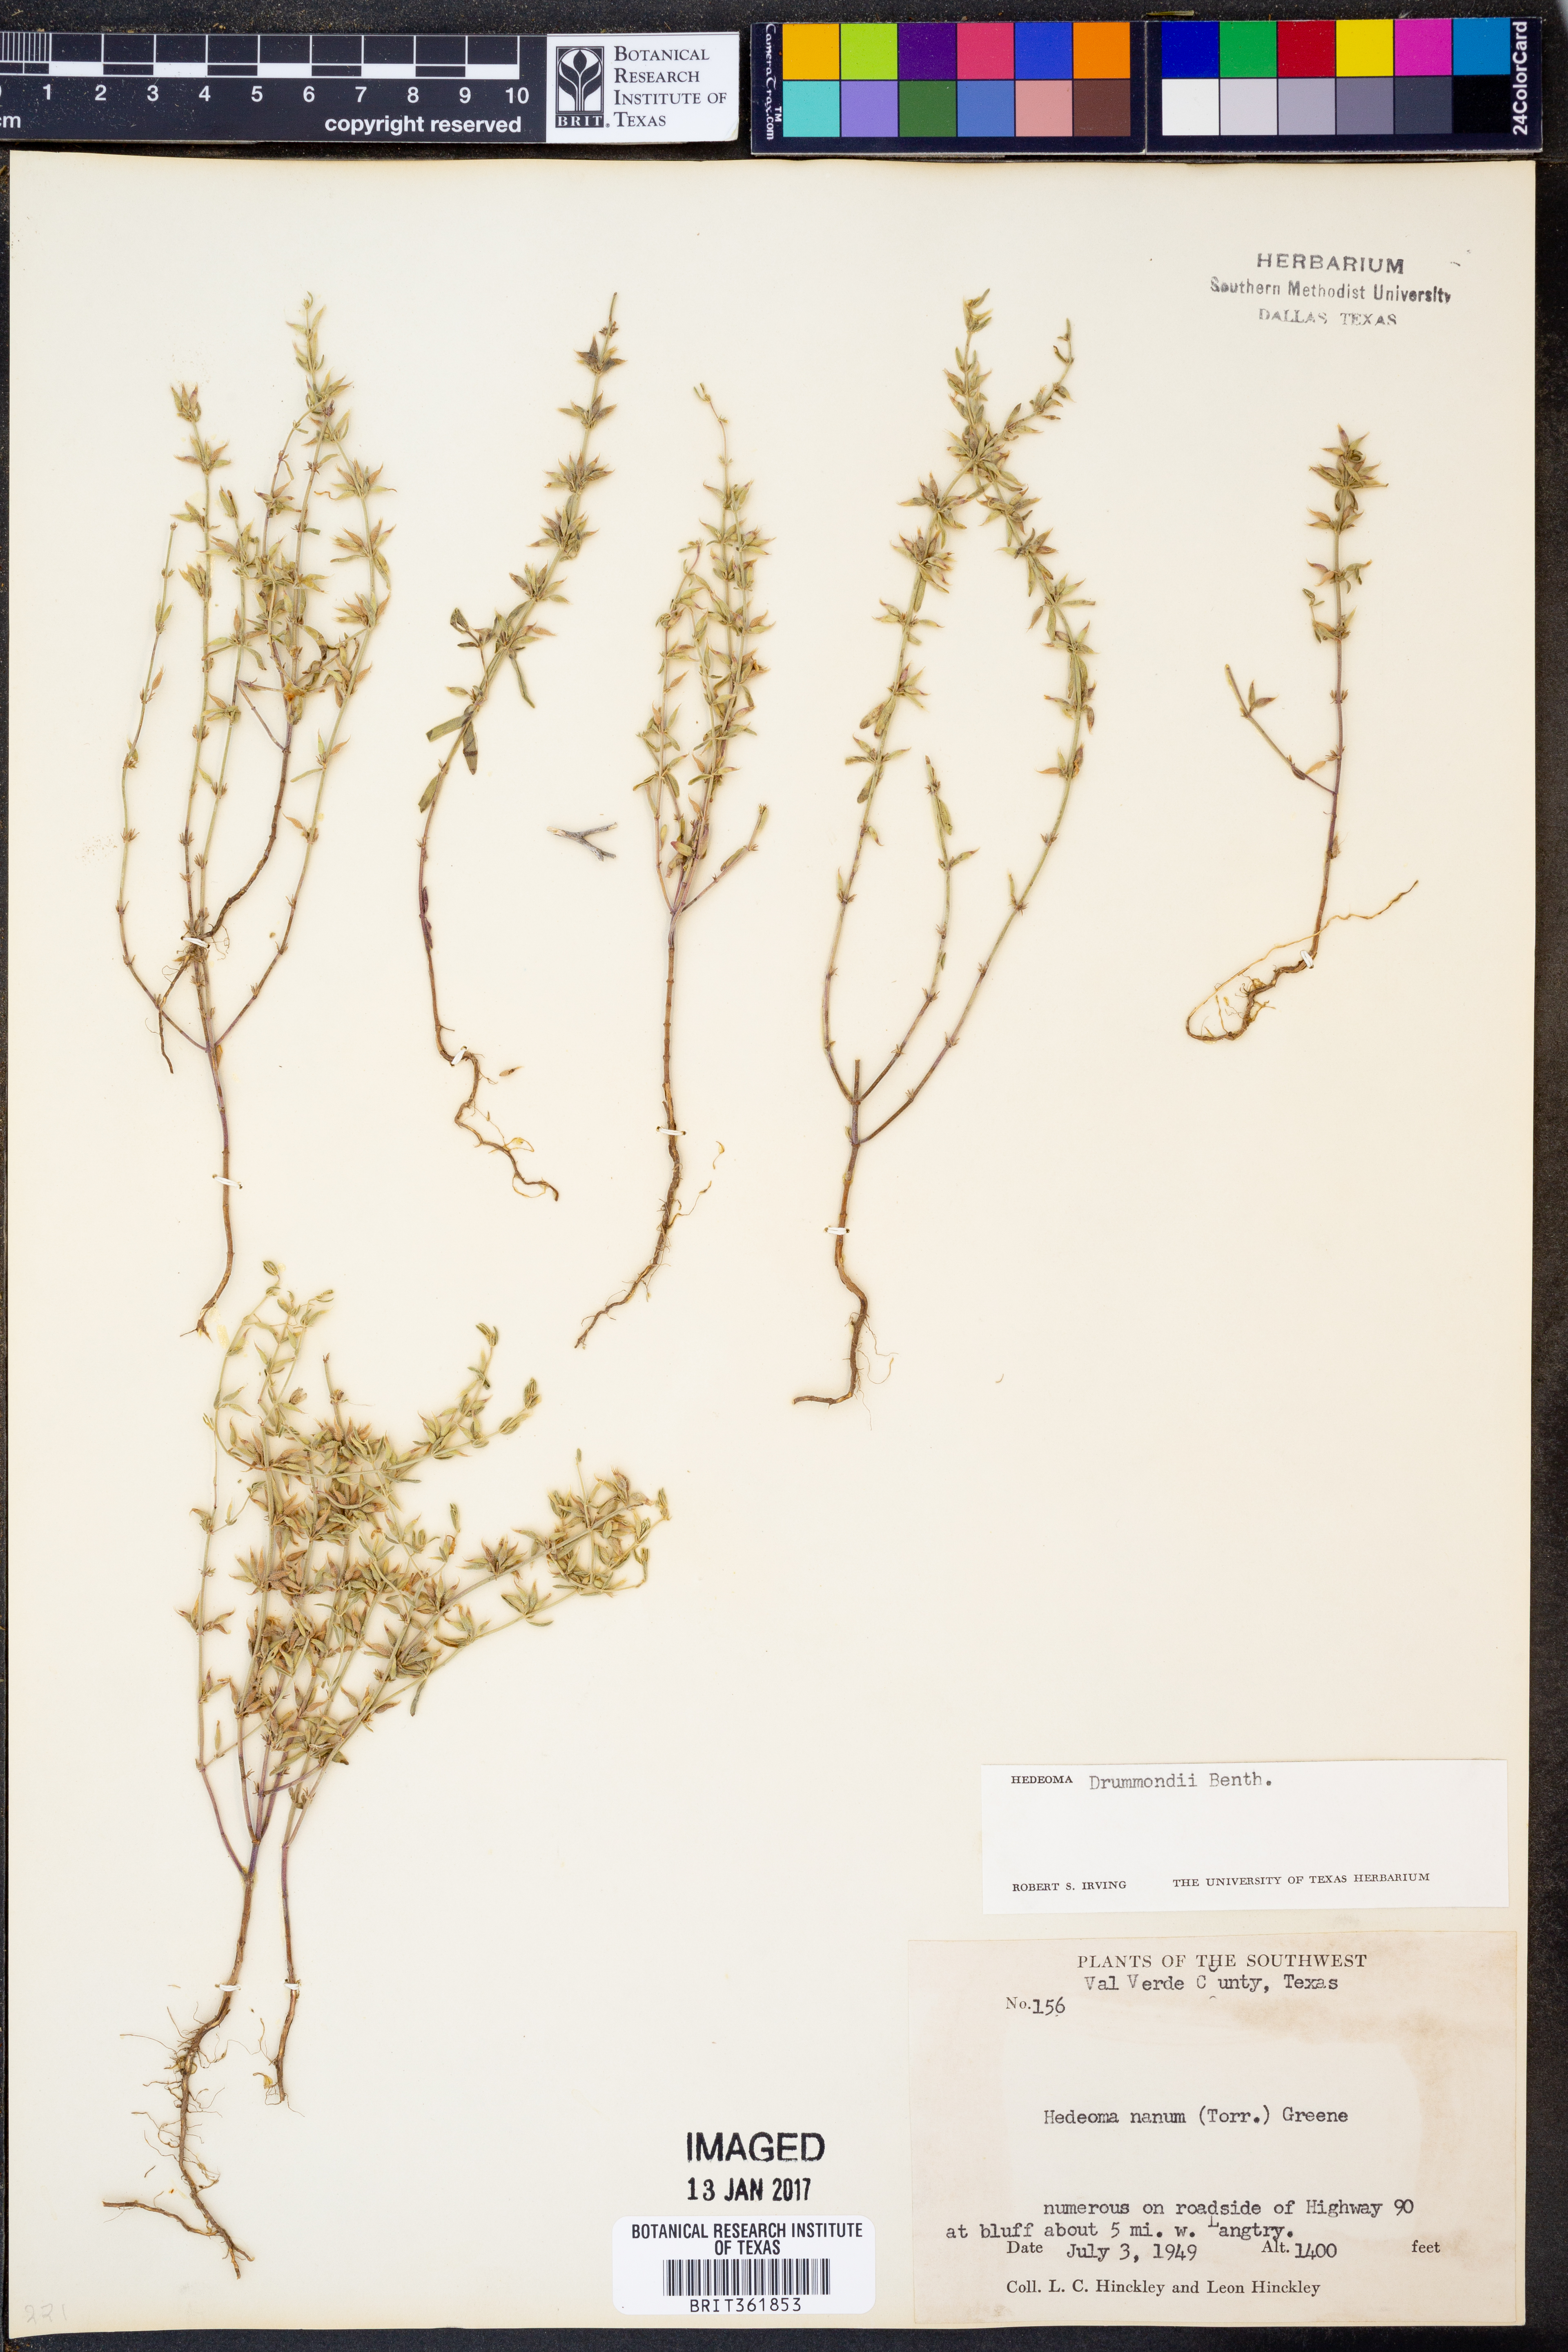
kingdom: Plantae
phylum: Tracheophyta
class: Magnoliopsida
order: Lamiales
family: Lamiaceae
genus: Hedeoma
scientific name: Hedeoma drummondii
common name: New mexico pennyroyal
